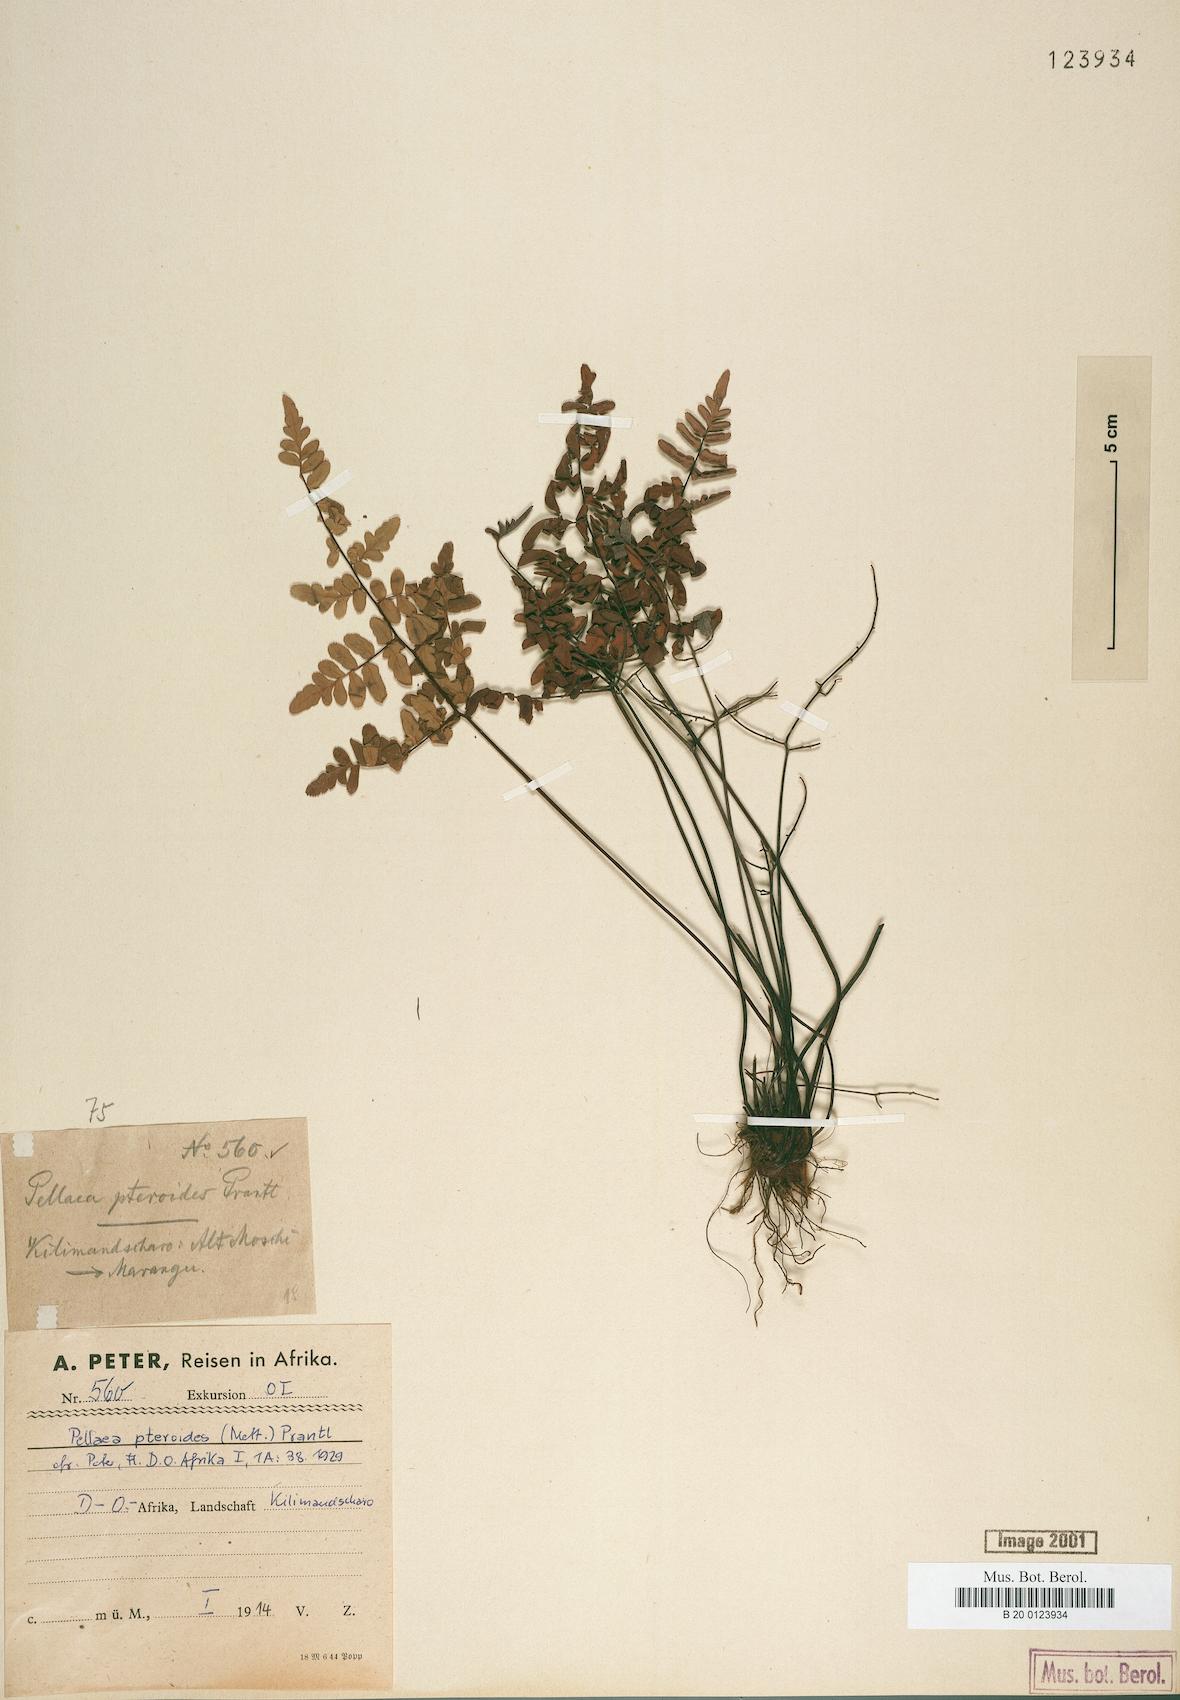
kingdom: Plantae
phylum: Tracheophyta
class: Polypodiopsida
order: Polypodiales
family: Pteridaceae
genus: Pellaea
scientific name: Pellaea pteroides
